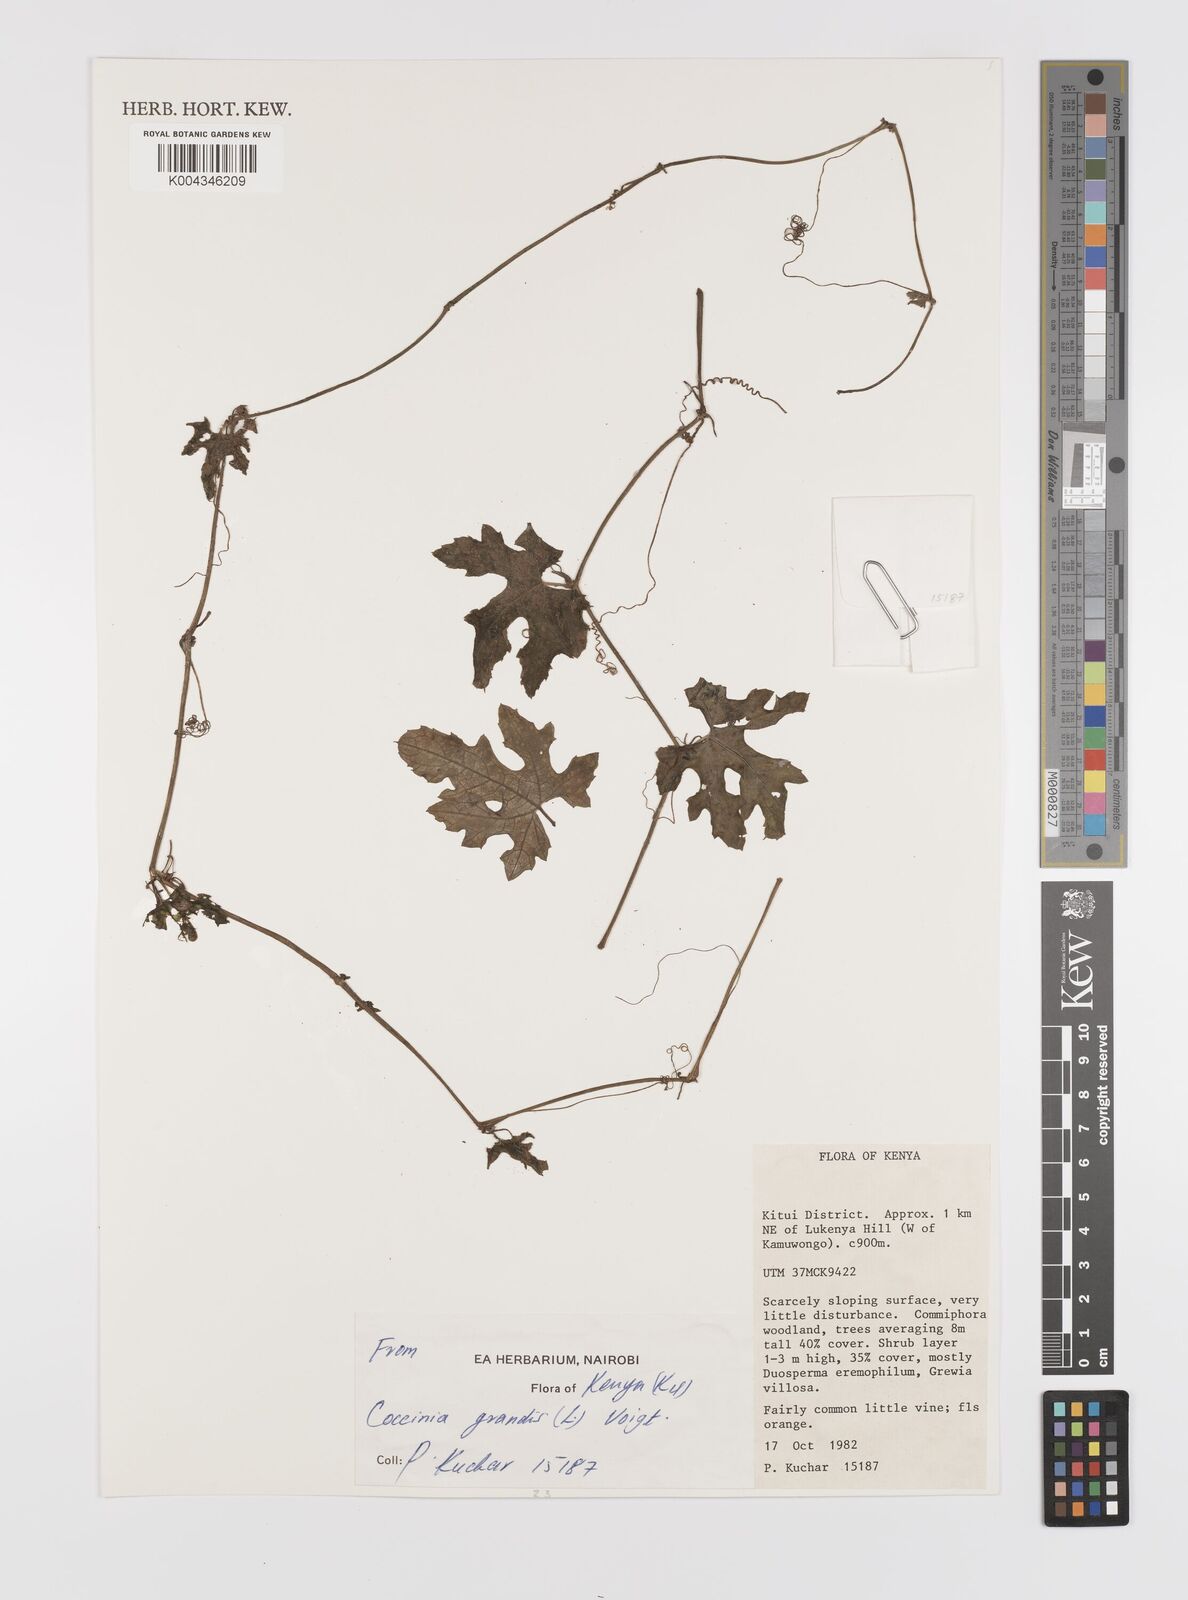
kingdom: Plantae
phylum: Tracheophyta
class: Magnoliopsida
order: Cucurbitales
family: Cucurbitaceae
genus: Coccinia
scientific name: Coccinia grandis
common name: Ivy gourd
